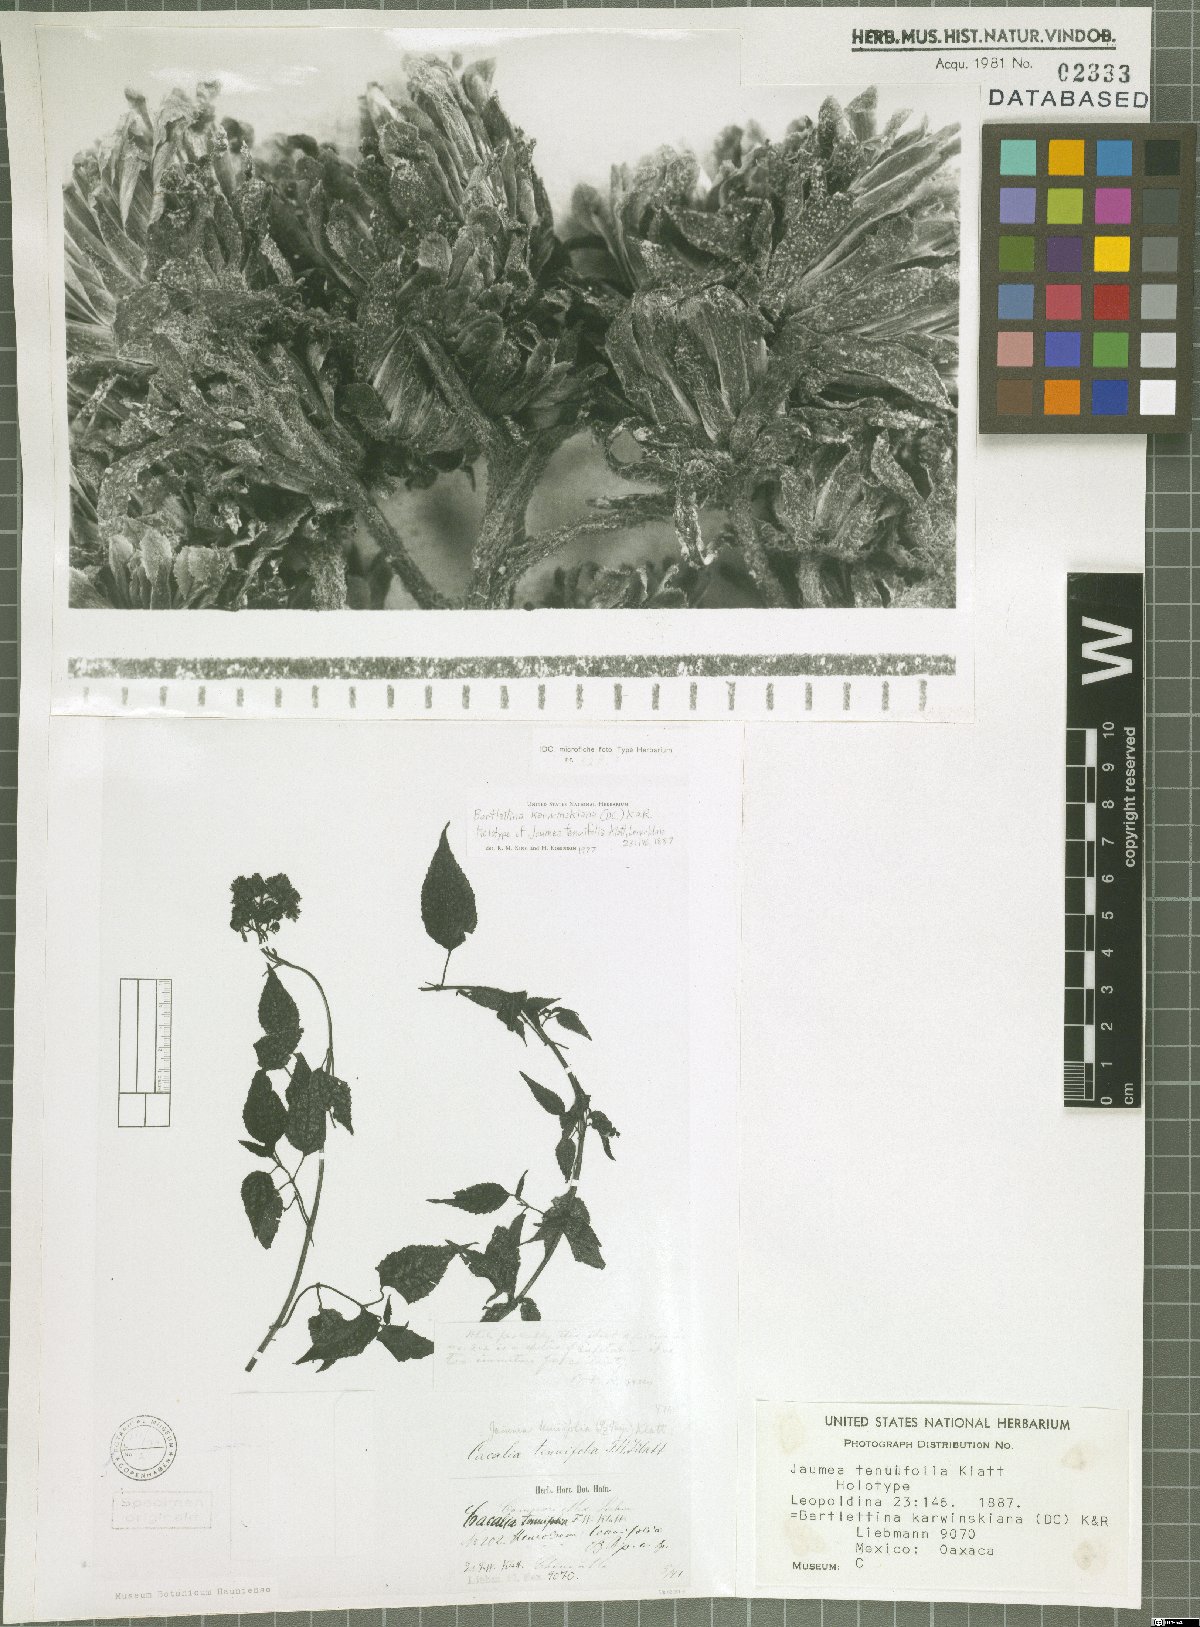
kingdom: Plantae
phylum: Tracheophyta
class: Magnoliopsida
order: Asterales
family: Asteraceae
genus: Bartlettina
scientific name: Bartlettina karwinskiana
